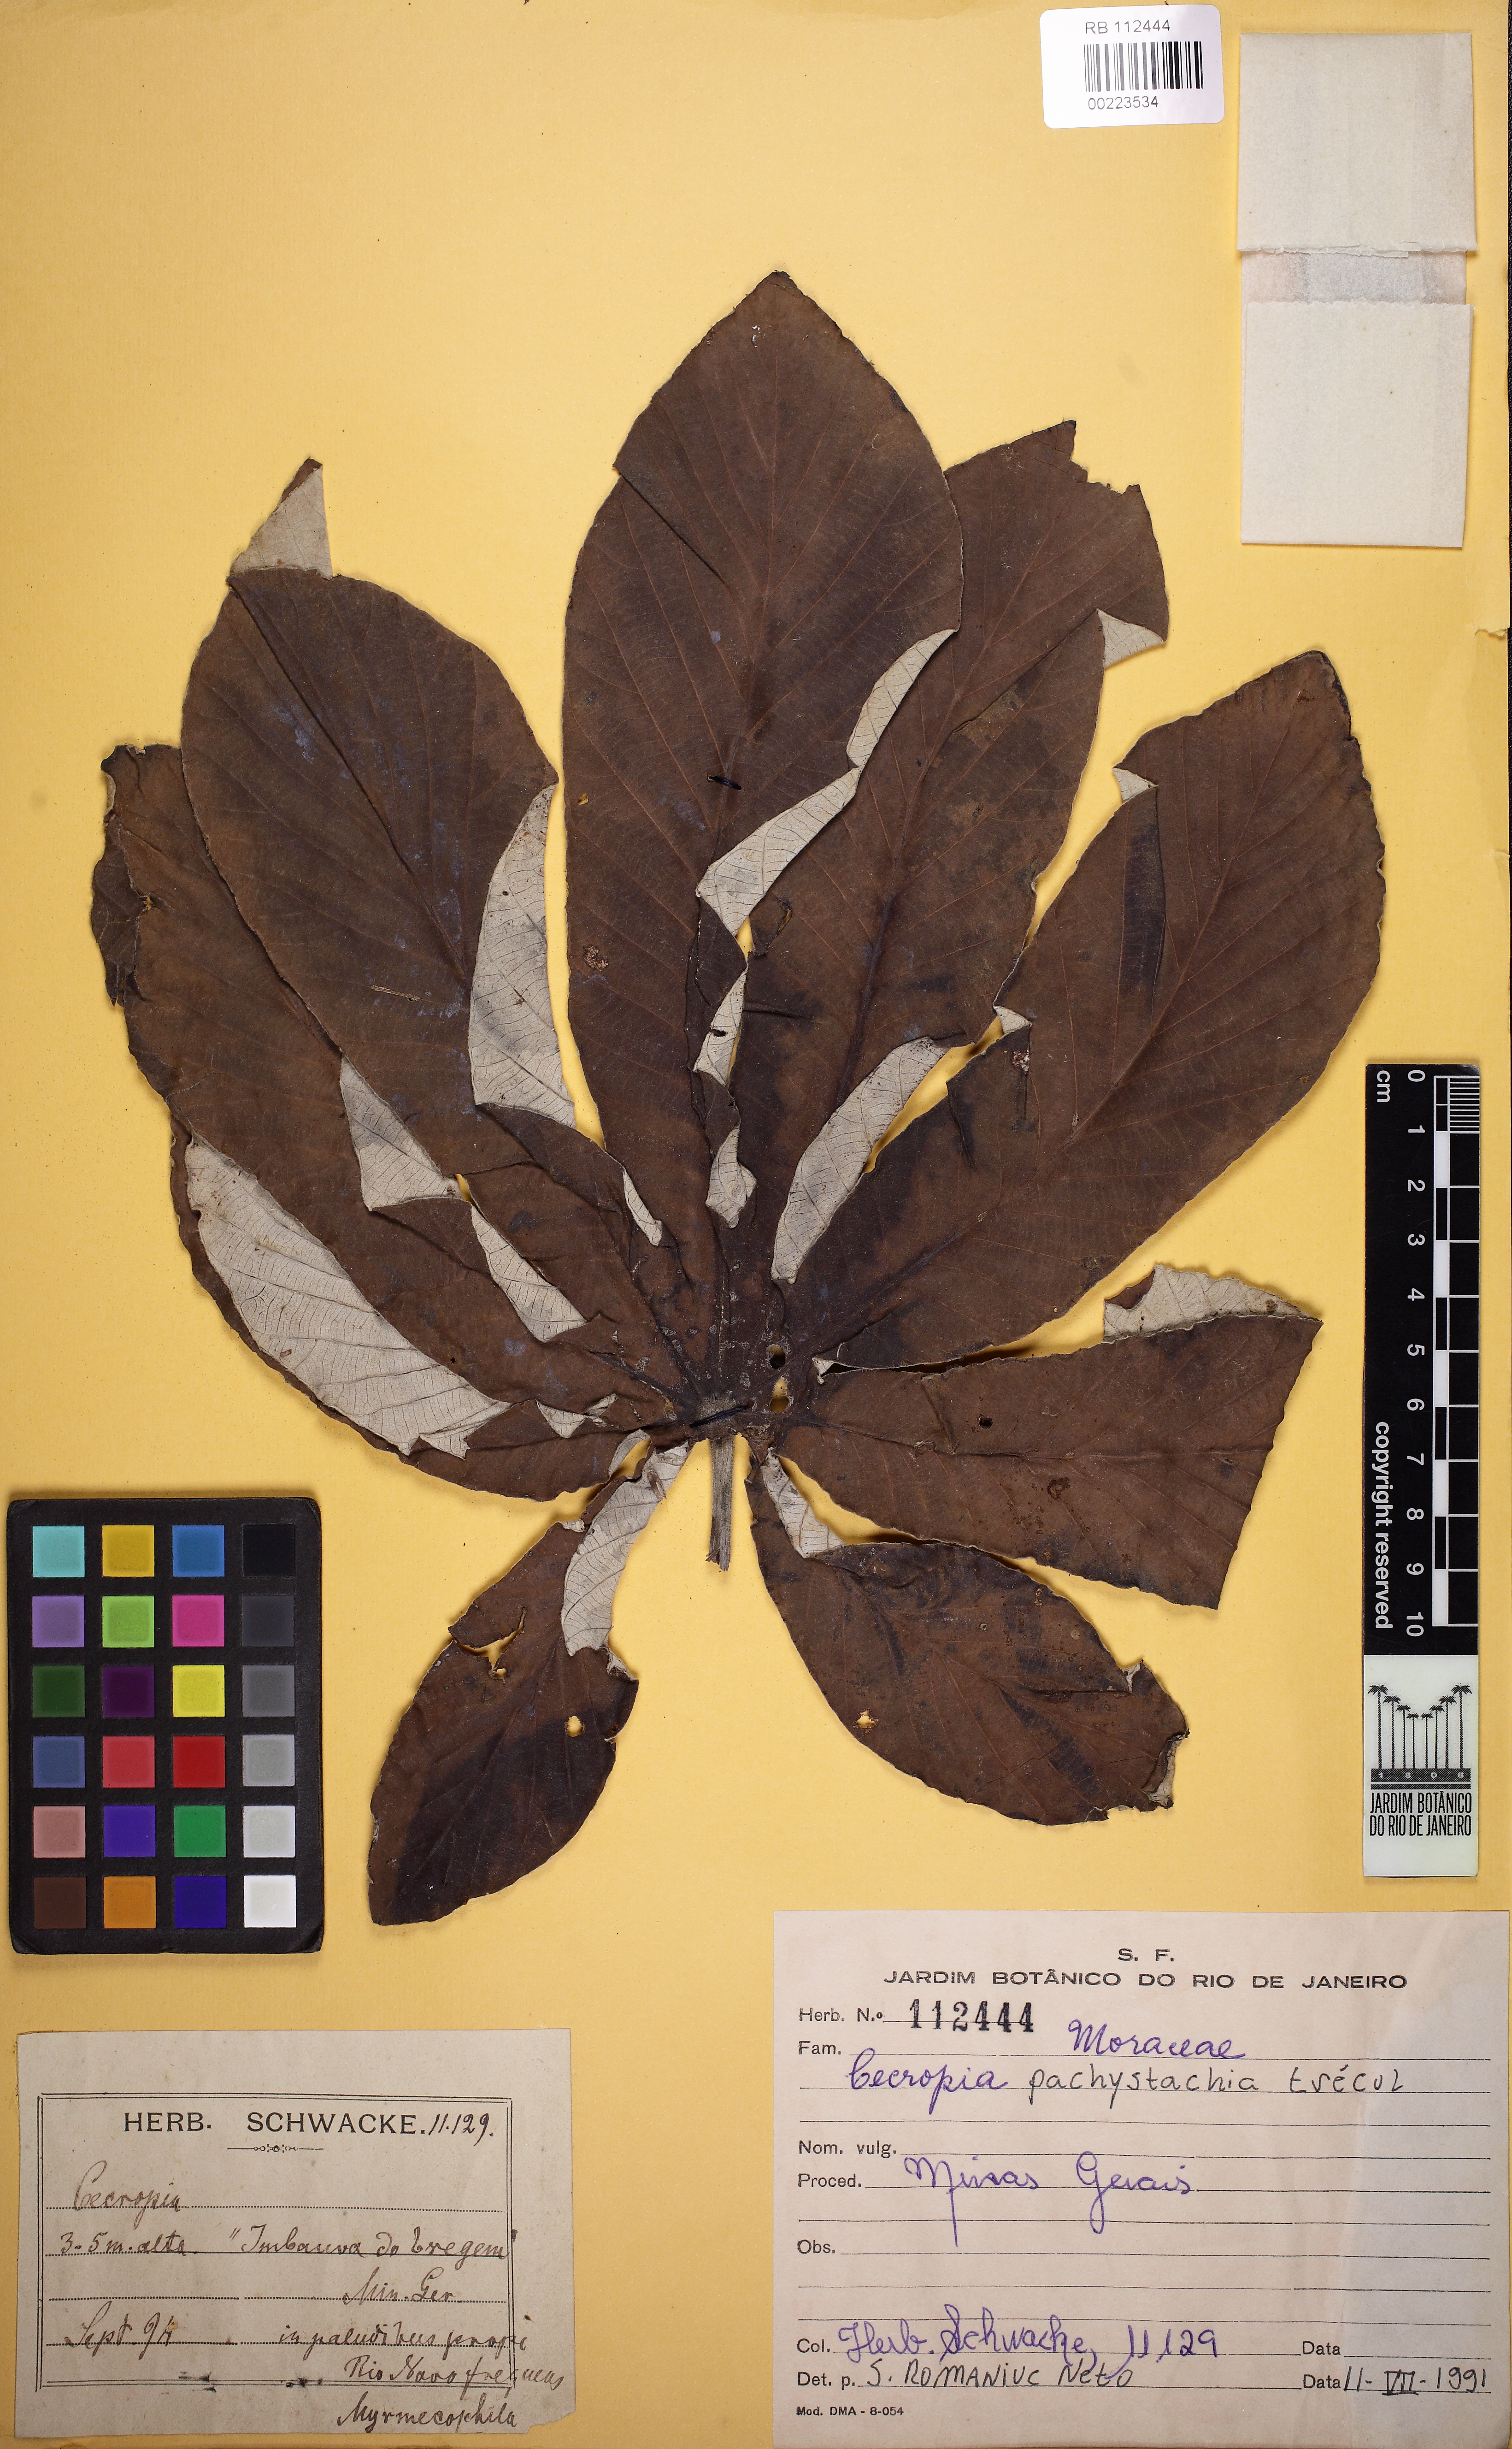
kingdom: Plantae
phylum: Tracheophyta
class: Magnoliopsida
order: Rosales
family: Urticaceae
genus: Cecropia
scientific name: Cecropia pachystachya
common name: Ambay pumpwood
